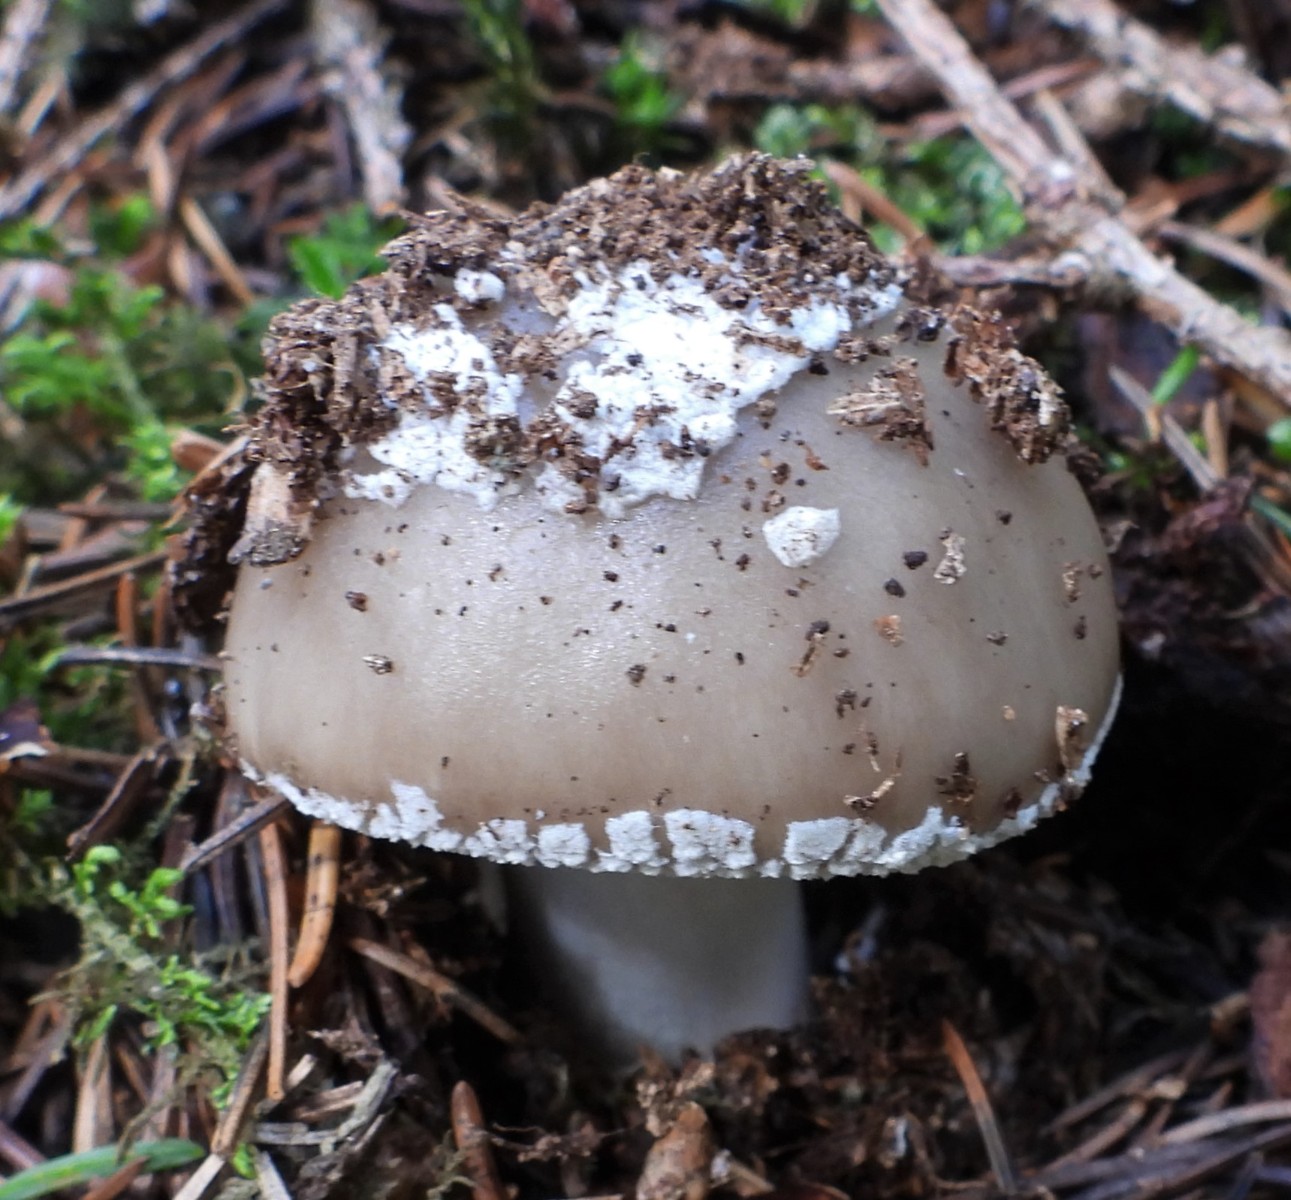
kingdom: Fungi
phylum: Basidiomycota
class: Agaricomycetes
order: Agaricales
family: Amanitaceae
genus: Amanita
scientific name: Amanita
